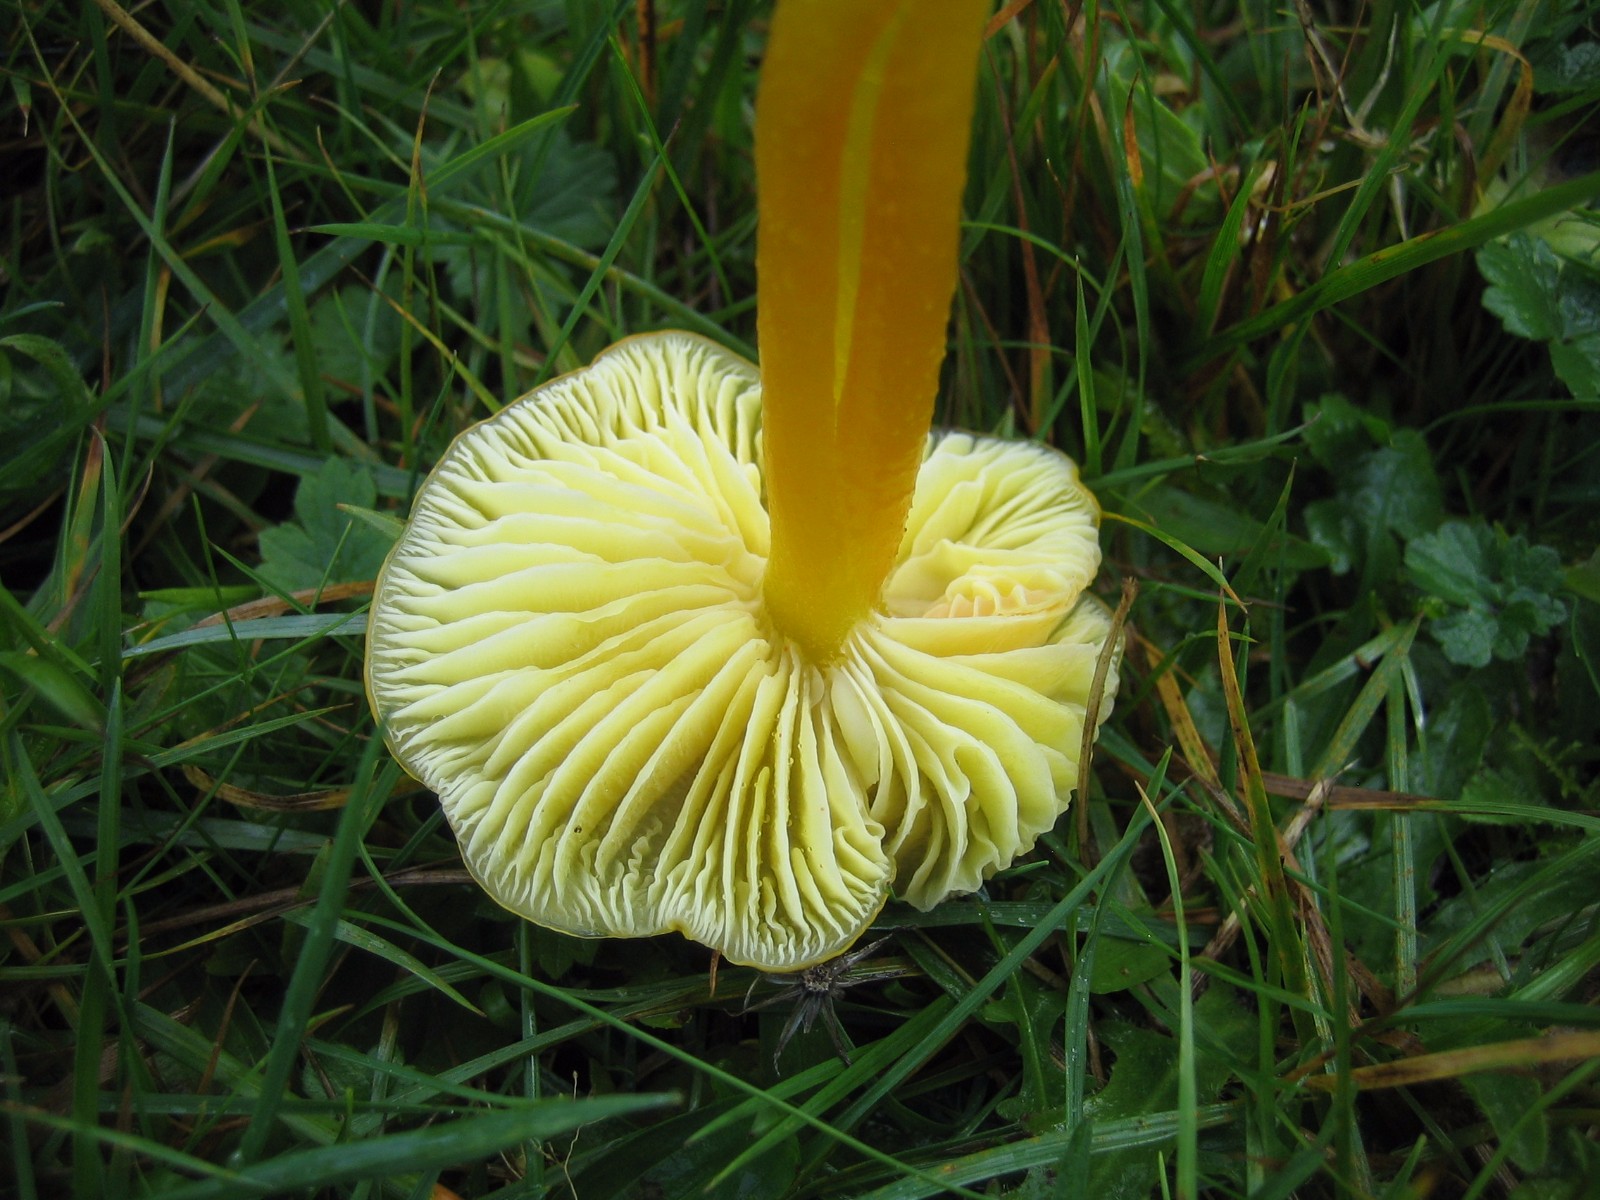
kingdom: Fungi
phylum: Basidiomycota
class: Agaricomycetes
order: Agaricales
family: Hygrophoraceae
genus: Hygrocybe
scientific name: Hygrocybe chlorophana
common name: gul vokshat
